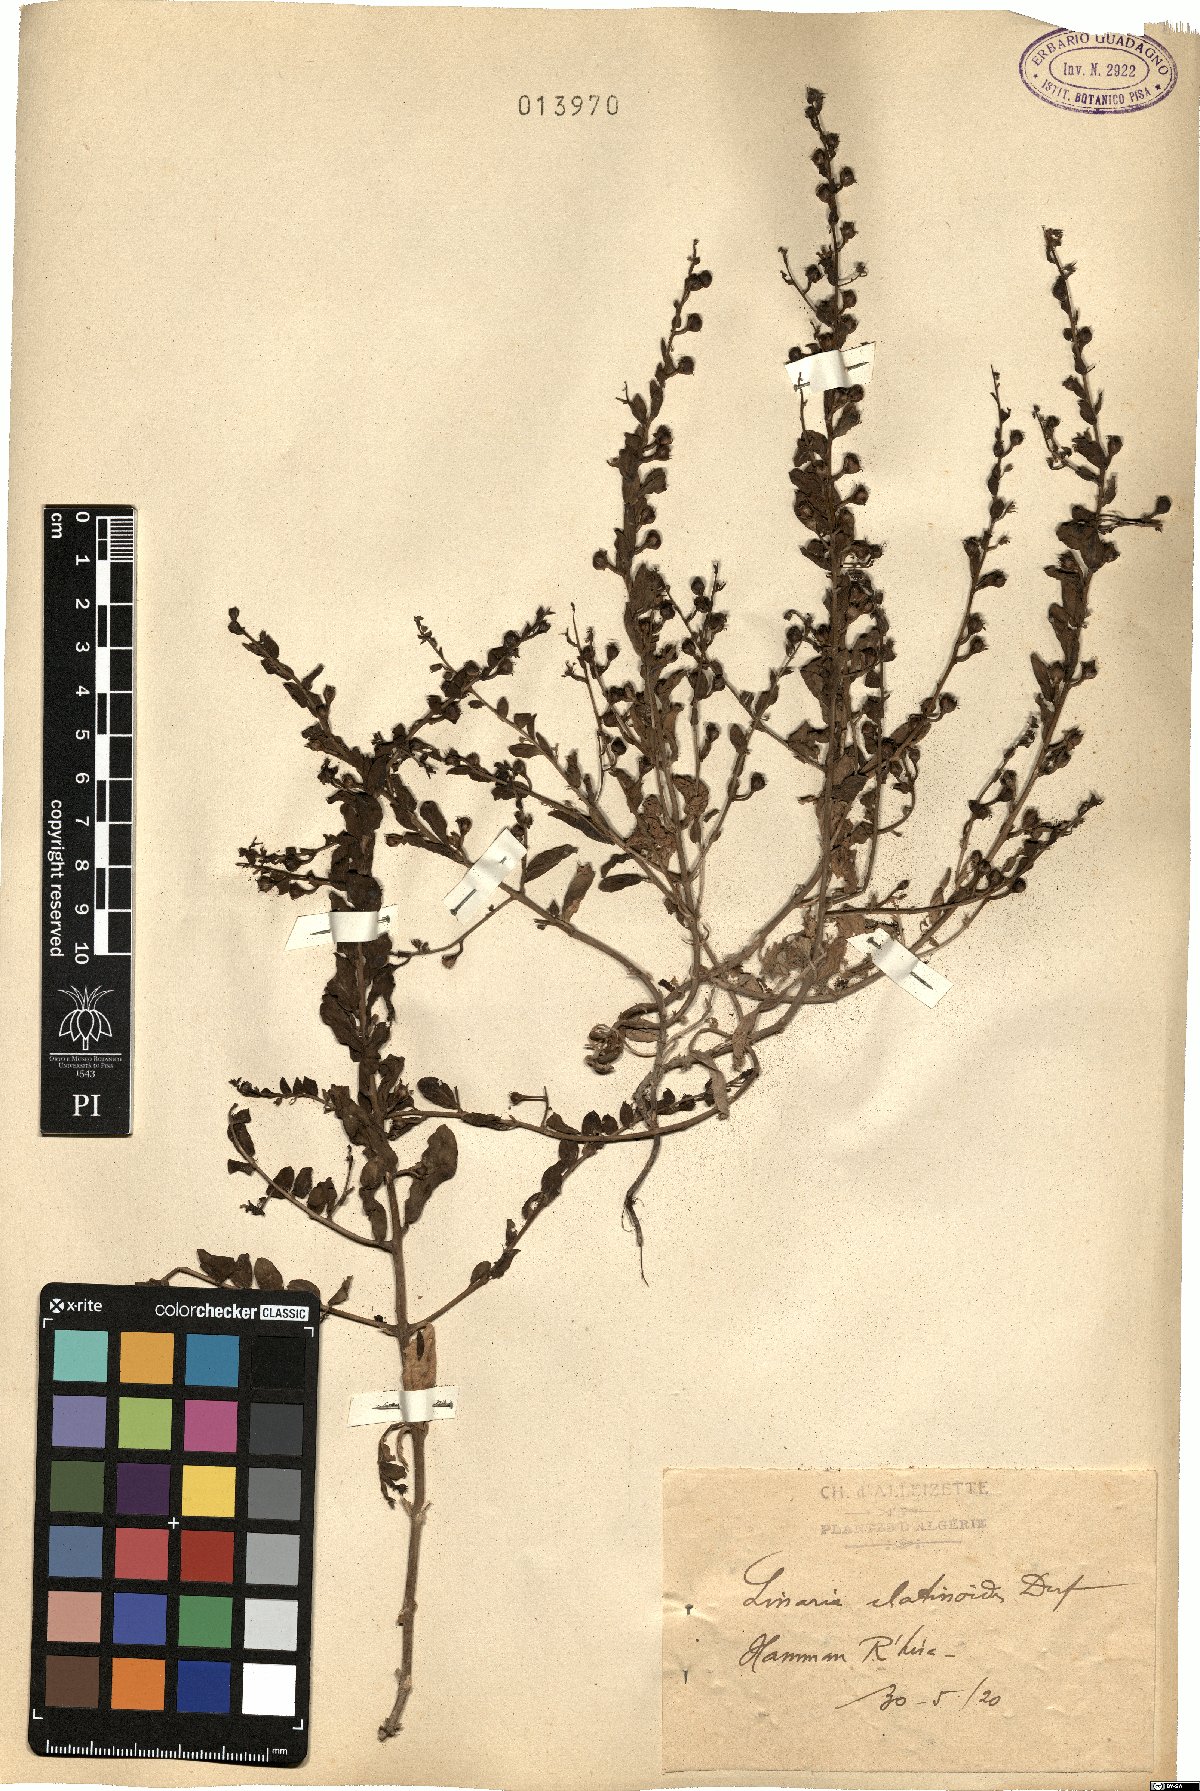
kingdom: Plantae
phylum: Tracheophyta
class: Magnoliopsida
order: Lamiales
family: Plantaginaceae
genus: Kickxia
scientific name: Kickxia elatinoides
